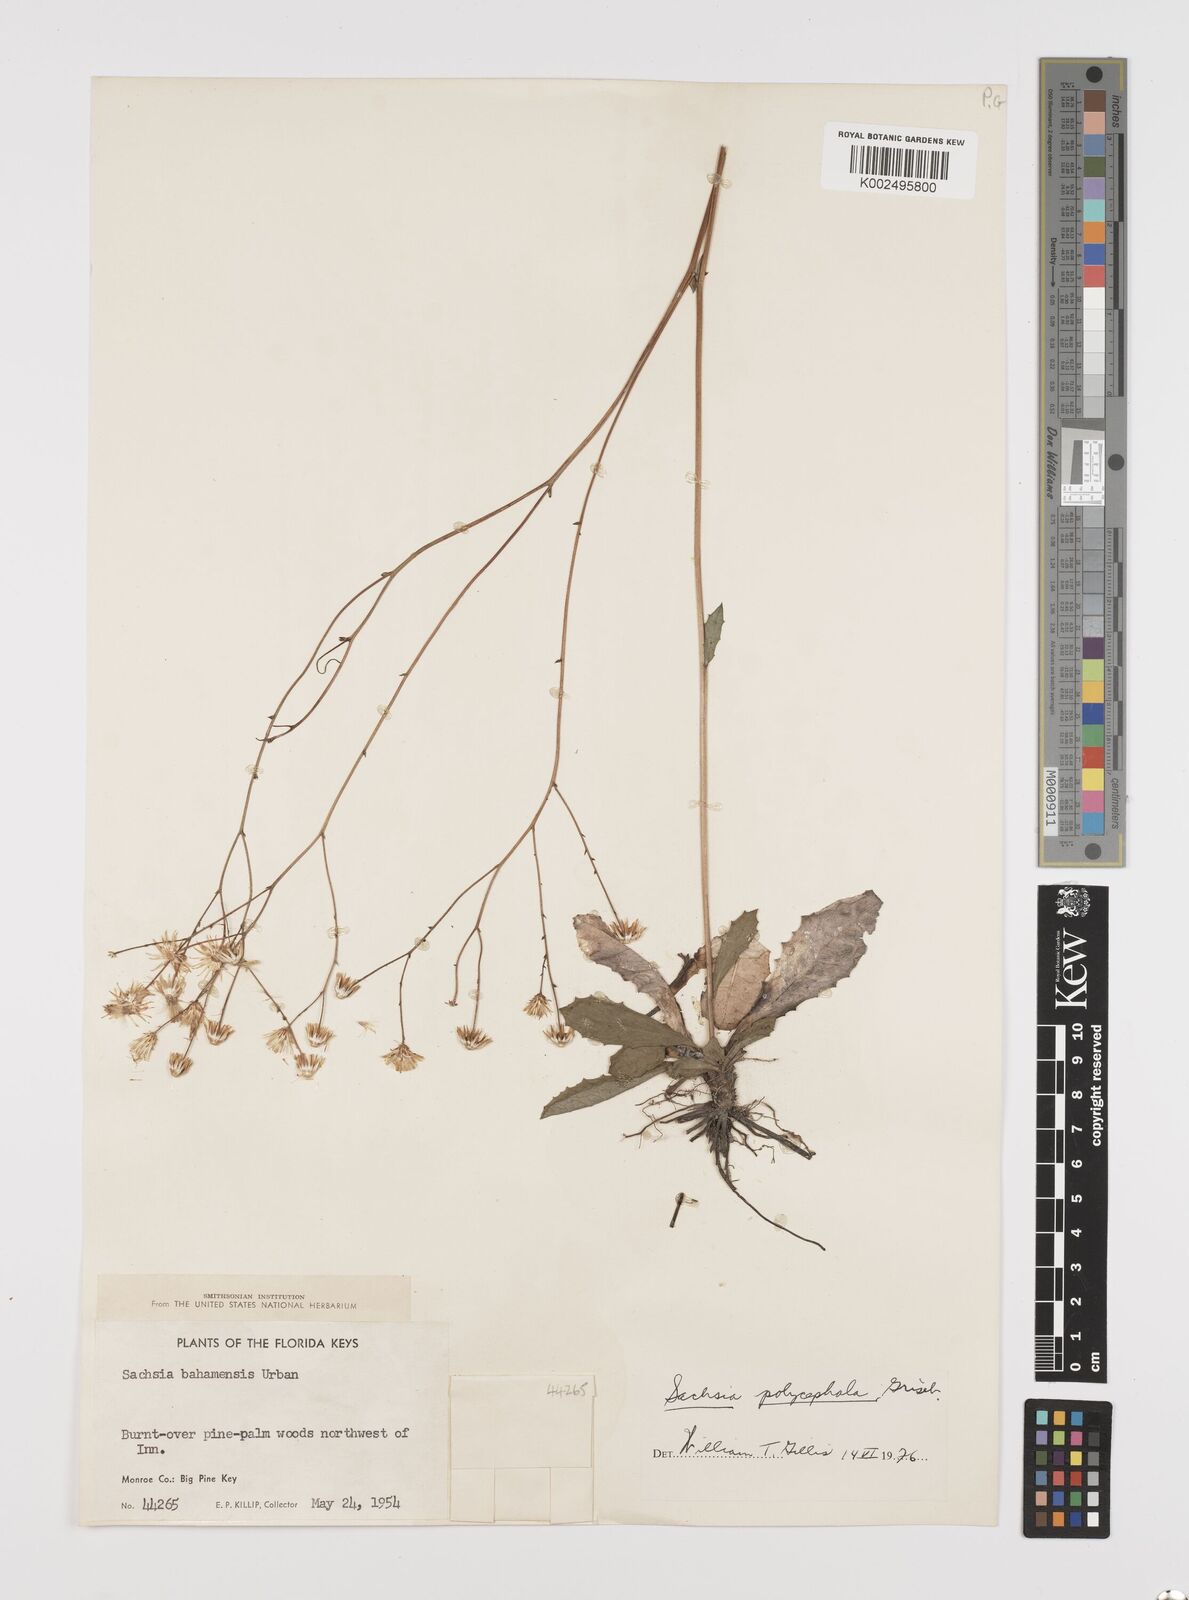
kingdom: Plantae
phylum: Tracheophyta
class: Magnoliopsida
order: Asterales
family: Asteraceae
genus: Sachsia
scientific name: Sachsia polycephala
